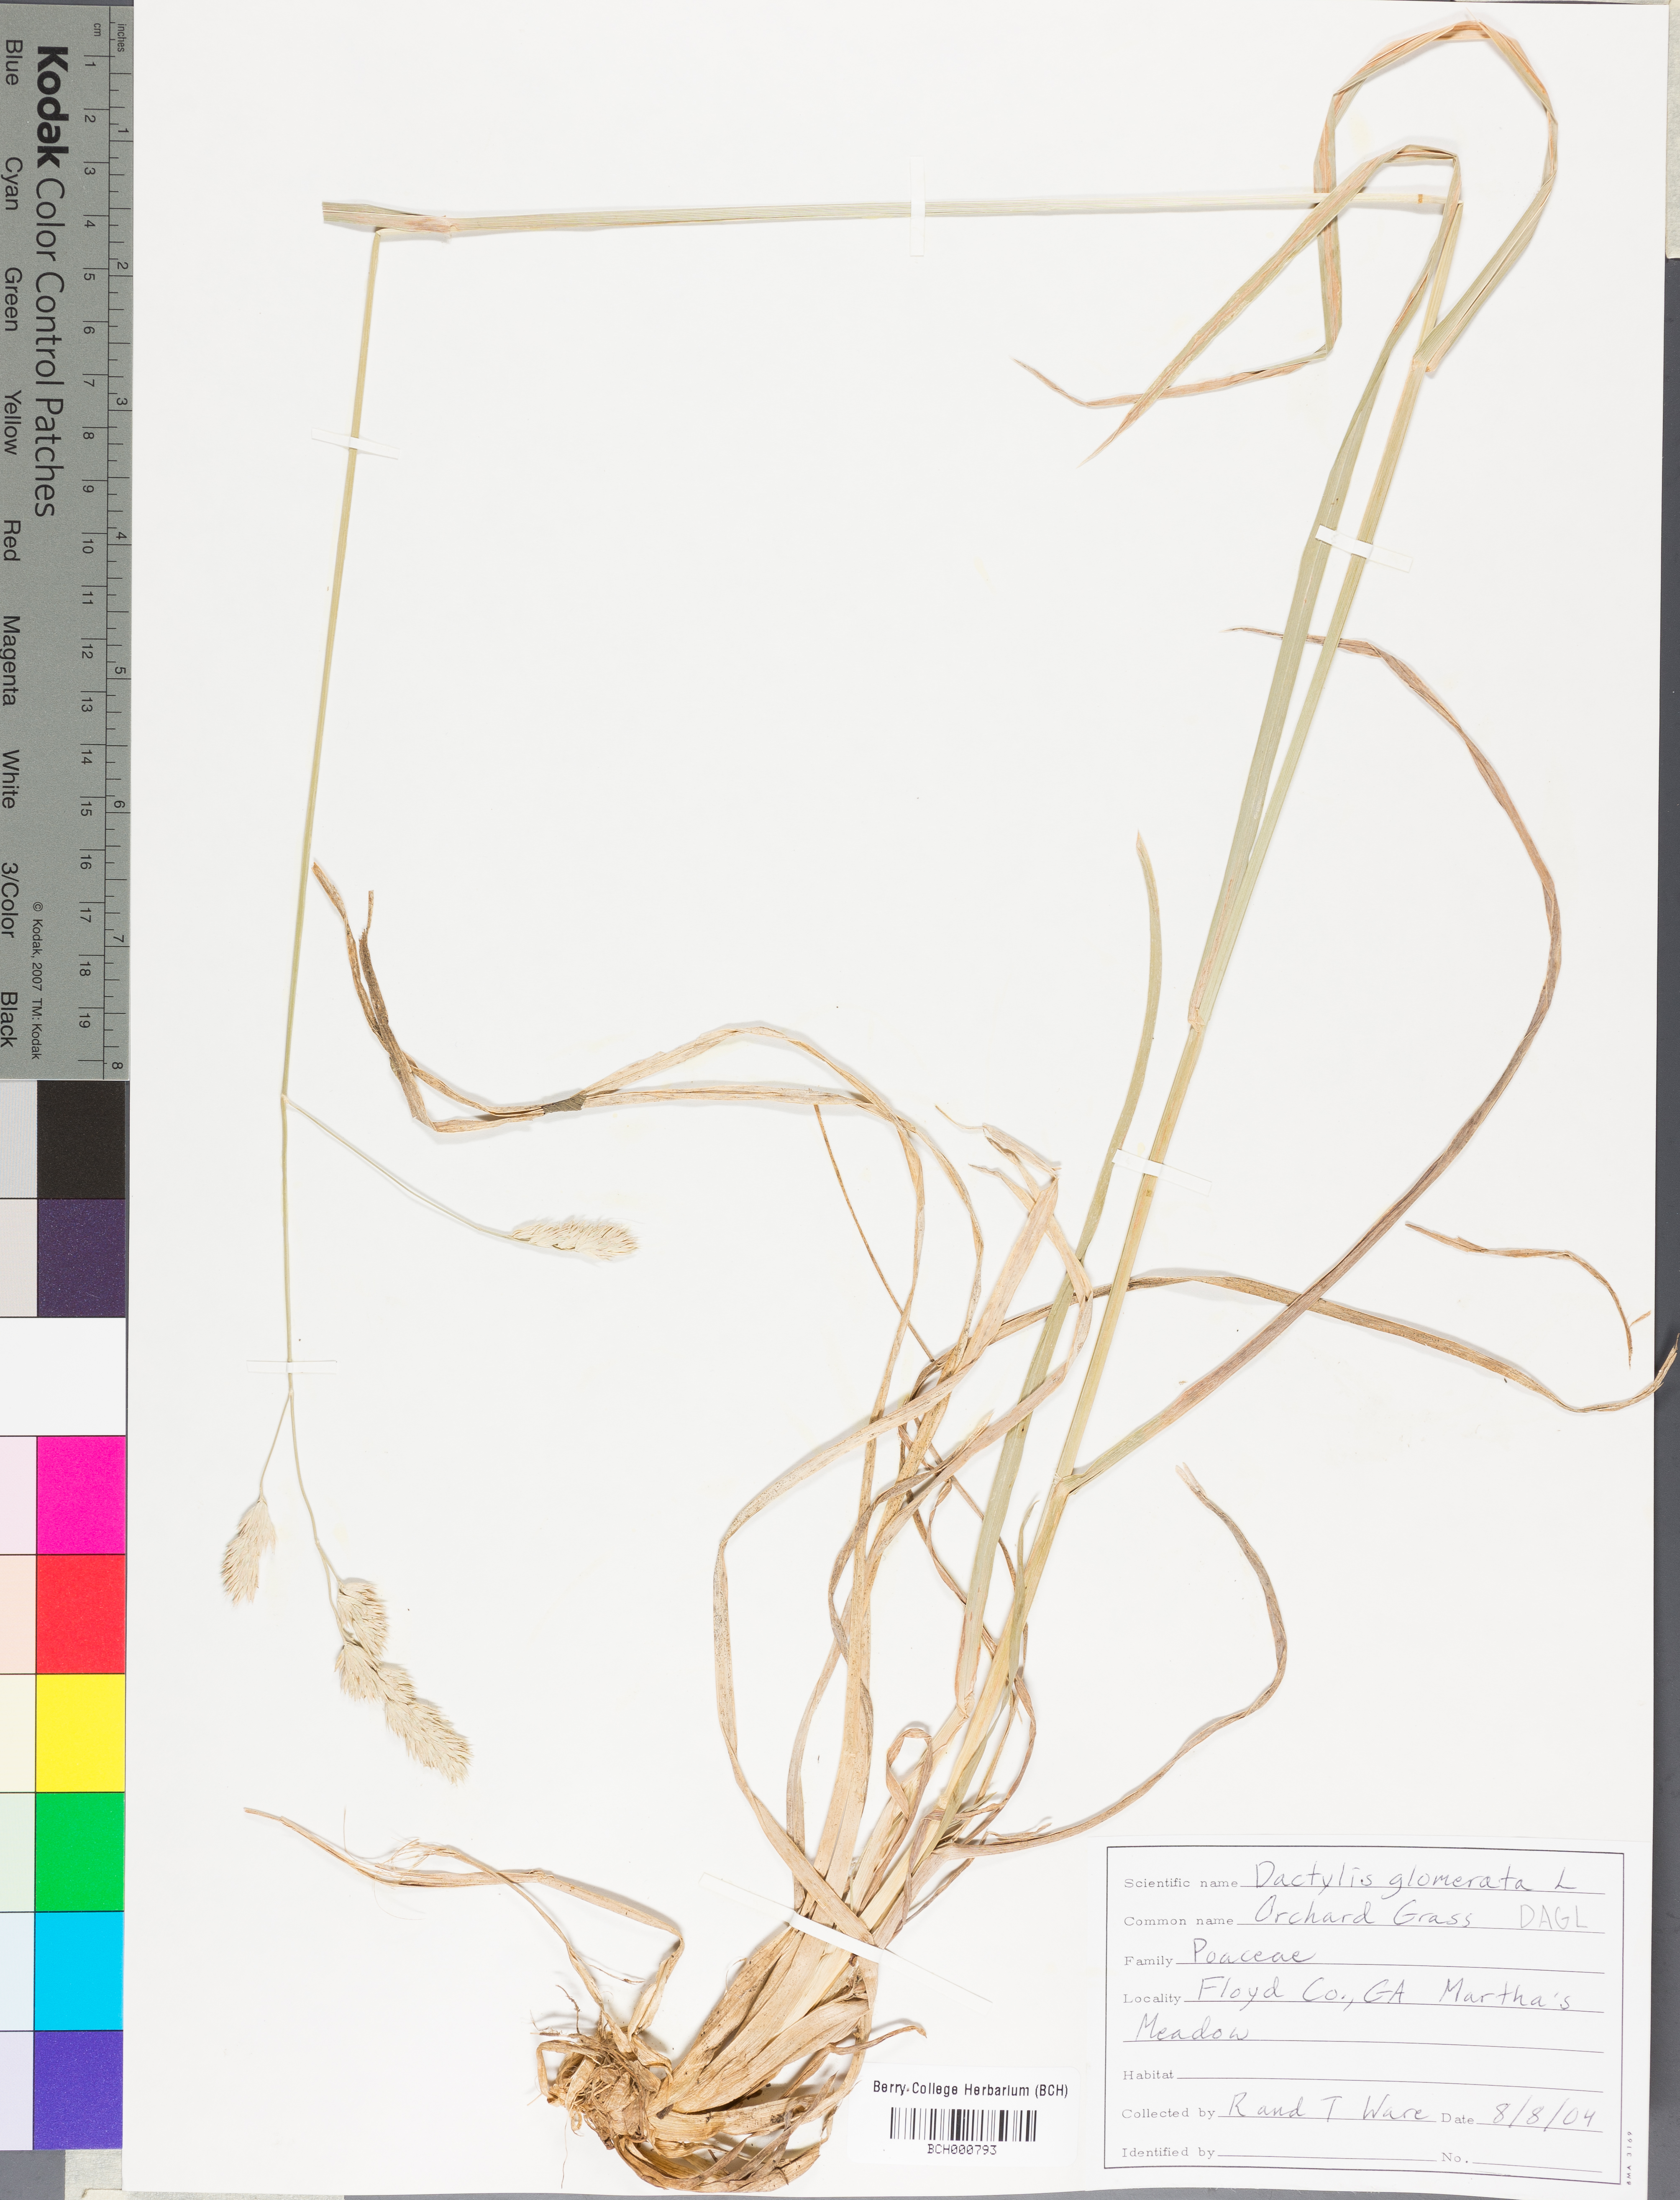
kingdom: Plantae
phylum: Tracheophyta
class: Liliopsida
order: Poales
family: Poaceae
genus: Dactylis
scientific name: Dactylis glomerata
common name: Orchardgrass
